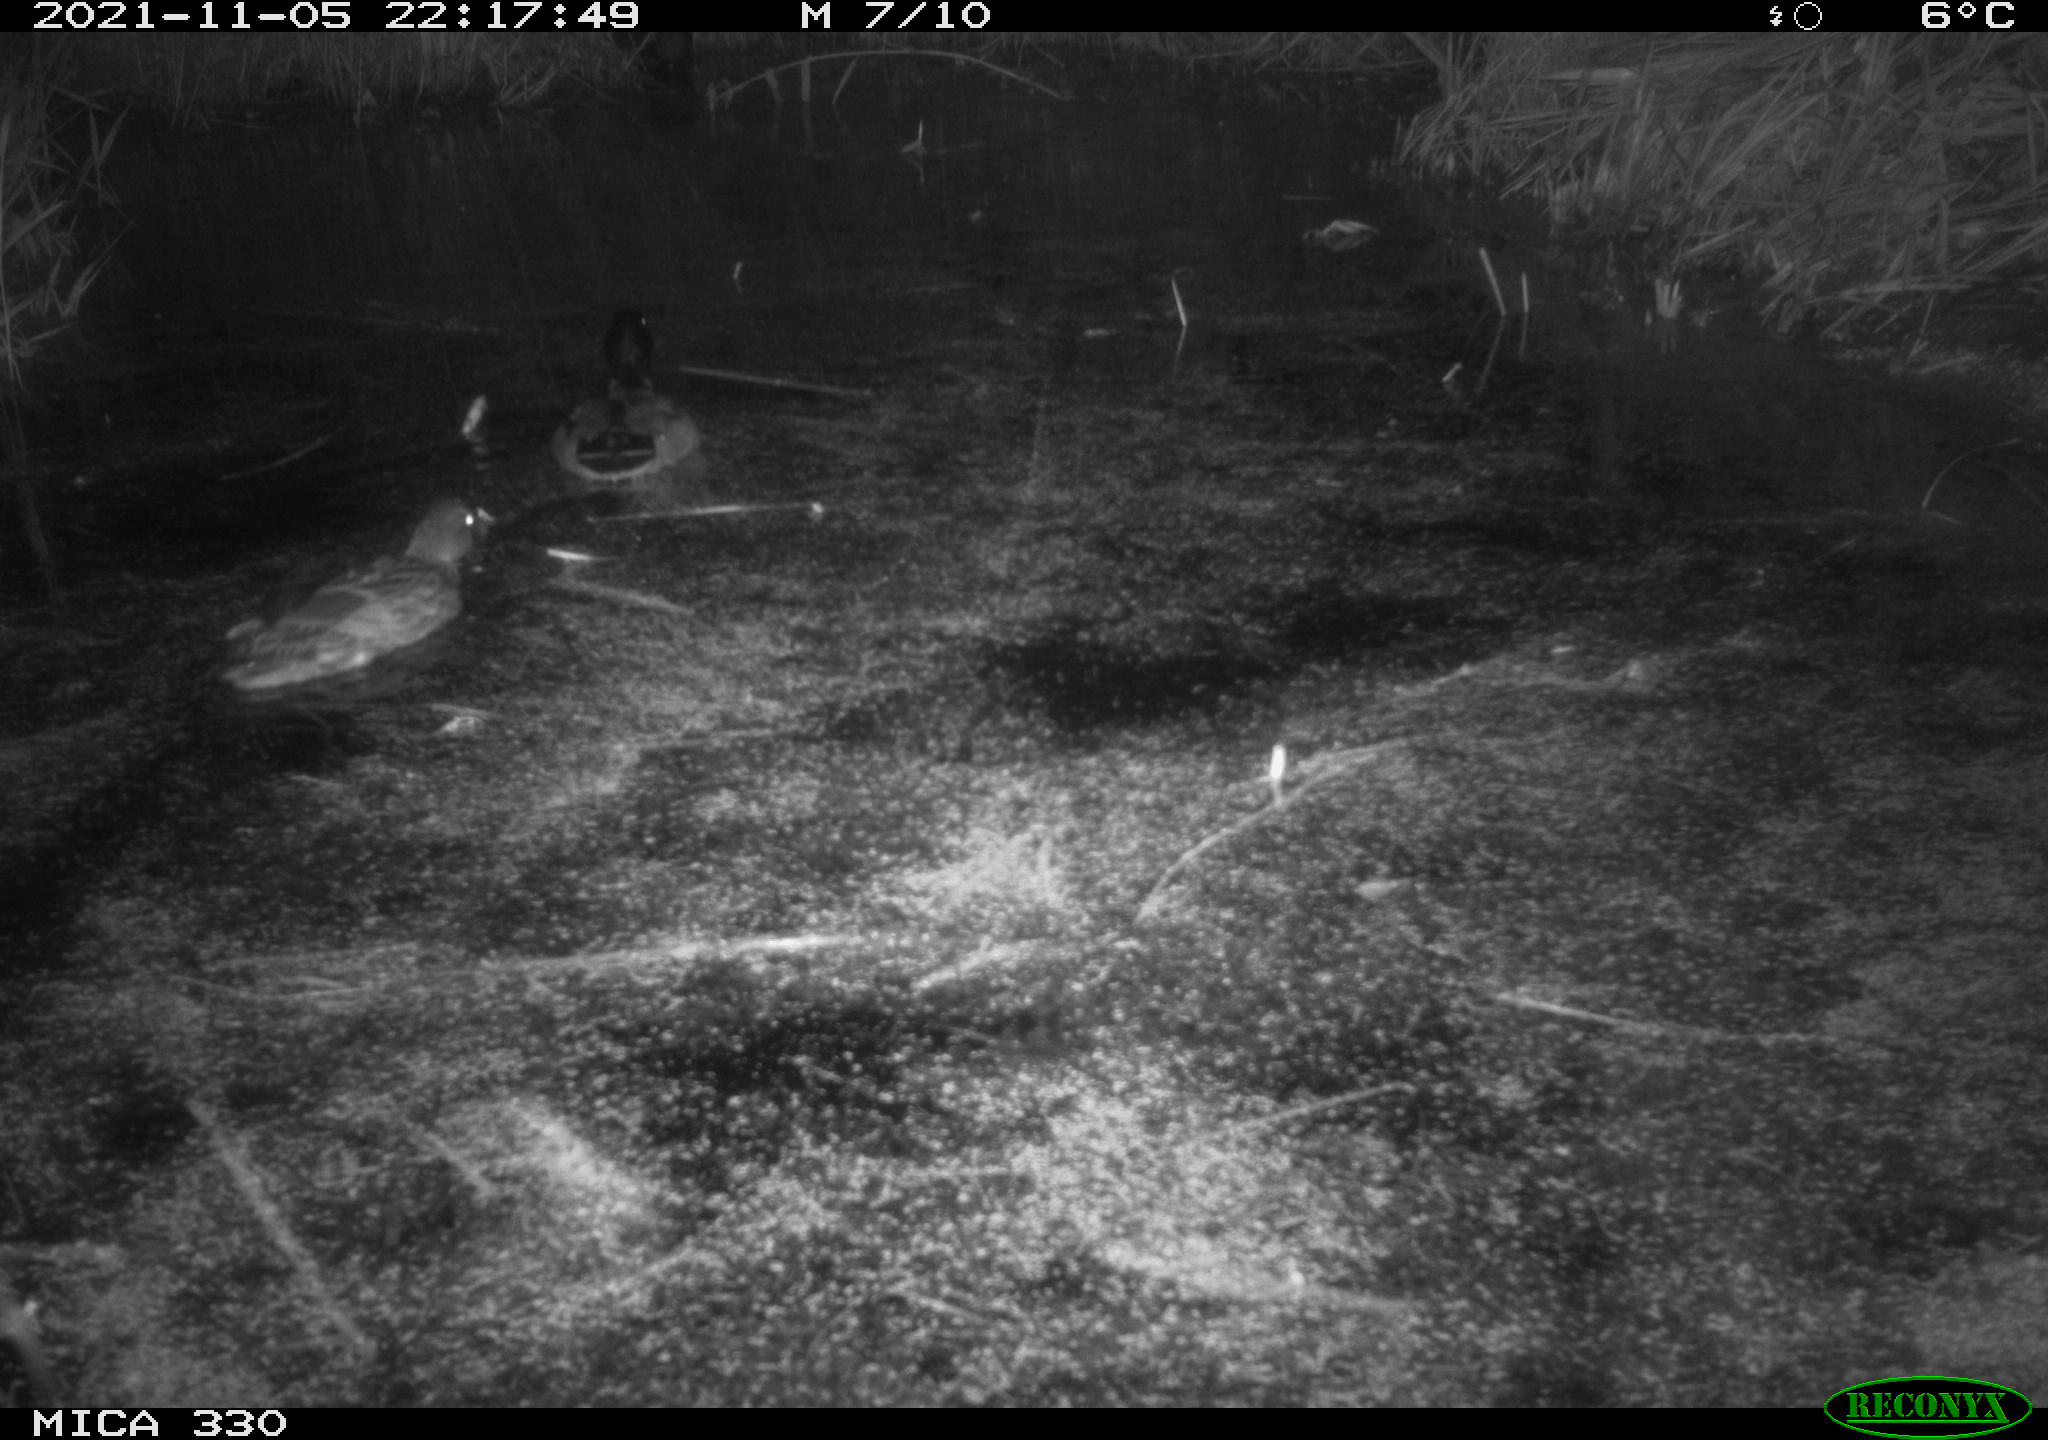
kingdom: Animalia
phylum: Chordata
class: Aves
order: Anseriformes
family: Anatidae
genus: Anas
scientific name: Anas platyrhynchos
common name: Mallard
